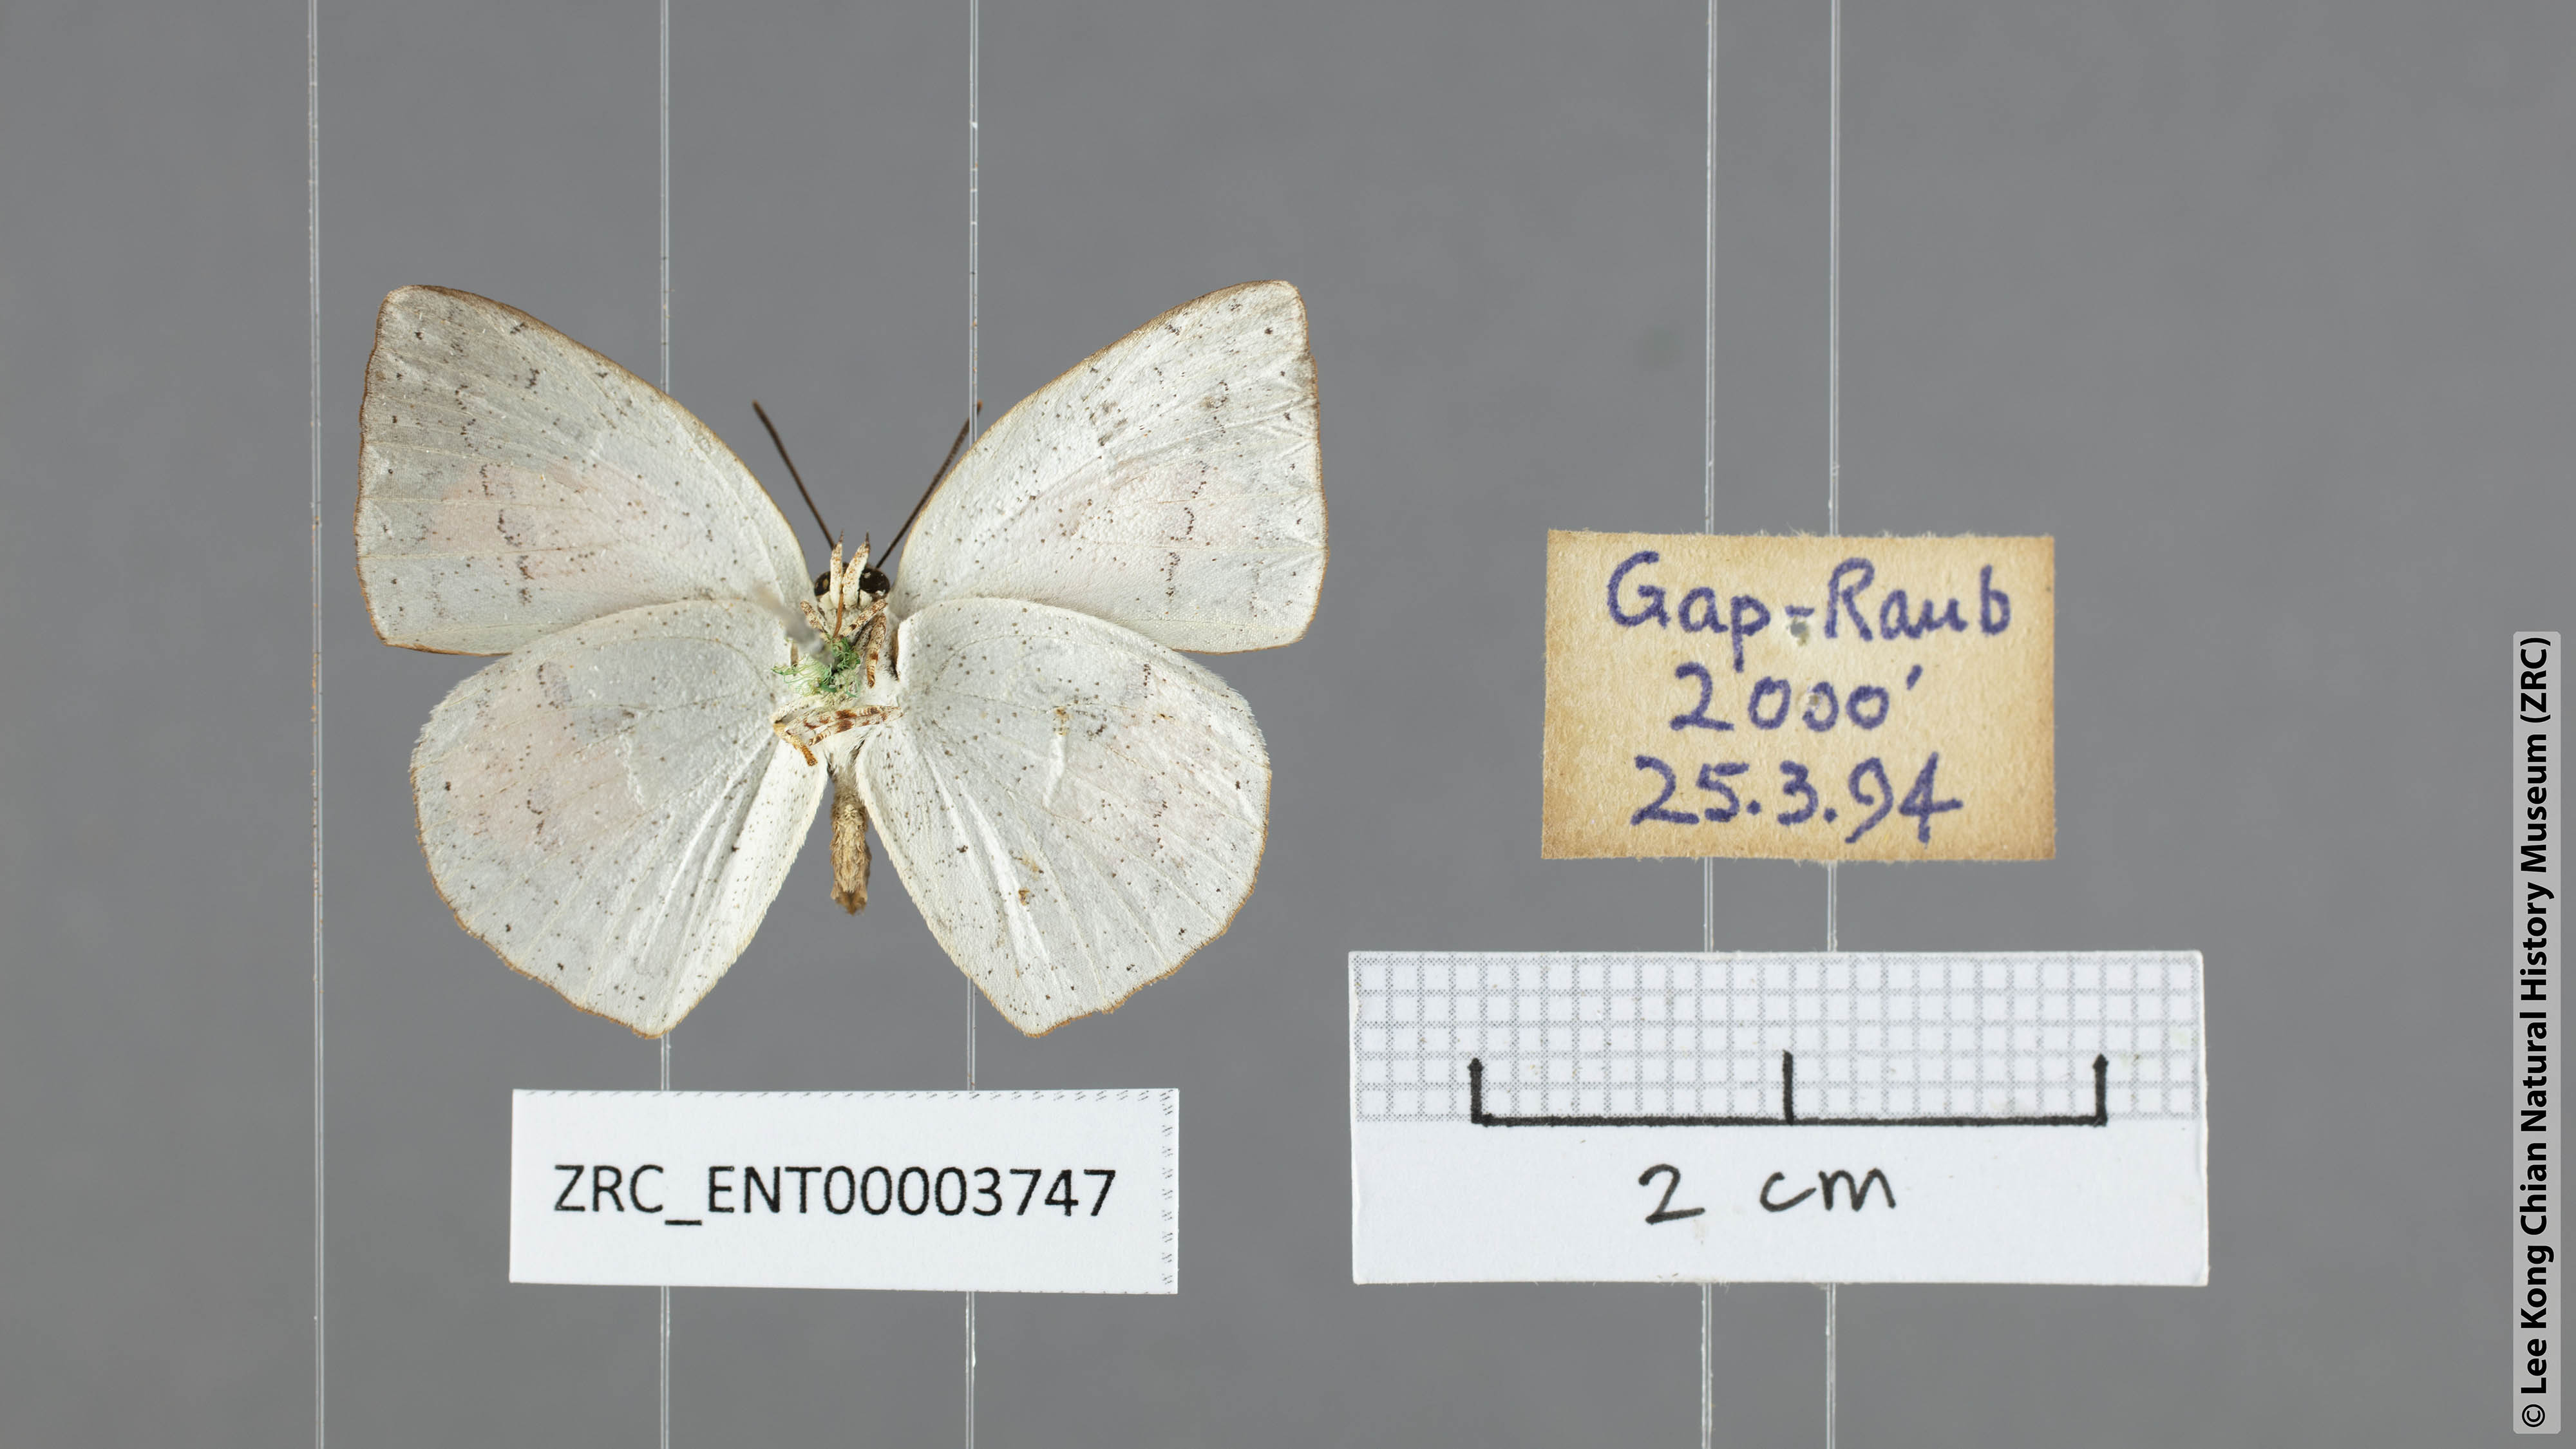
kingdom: Animalia
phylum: Arthropoda
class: Insecta
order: Lepidoptera
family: Lycaenidae
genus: Curetis
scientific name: Curetis santana
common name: Malayan sunbeam
